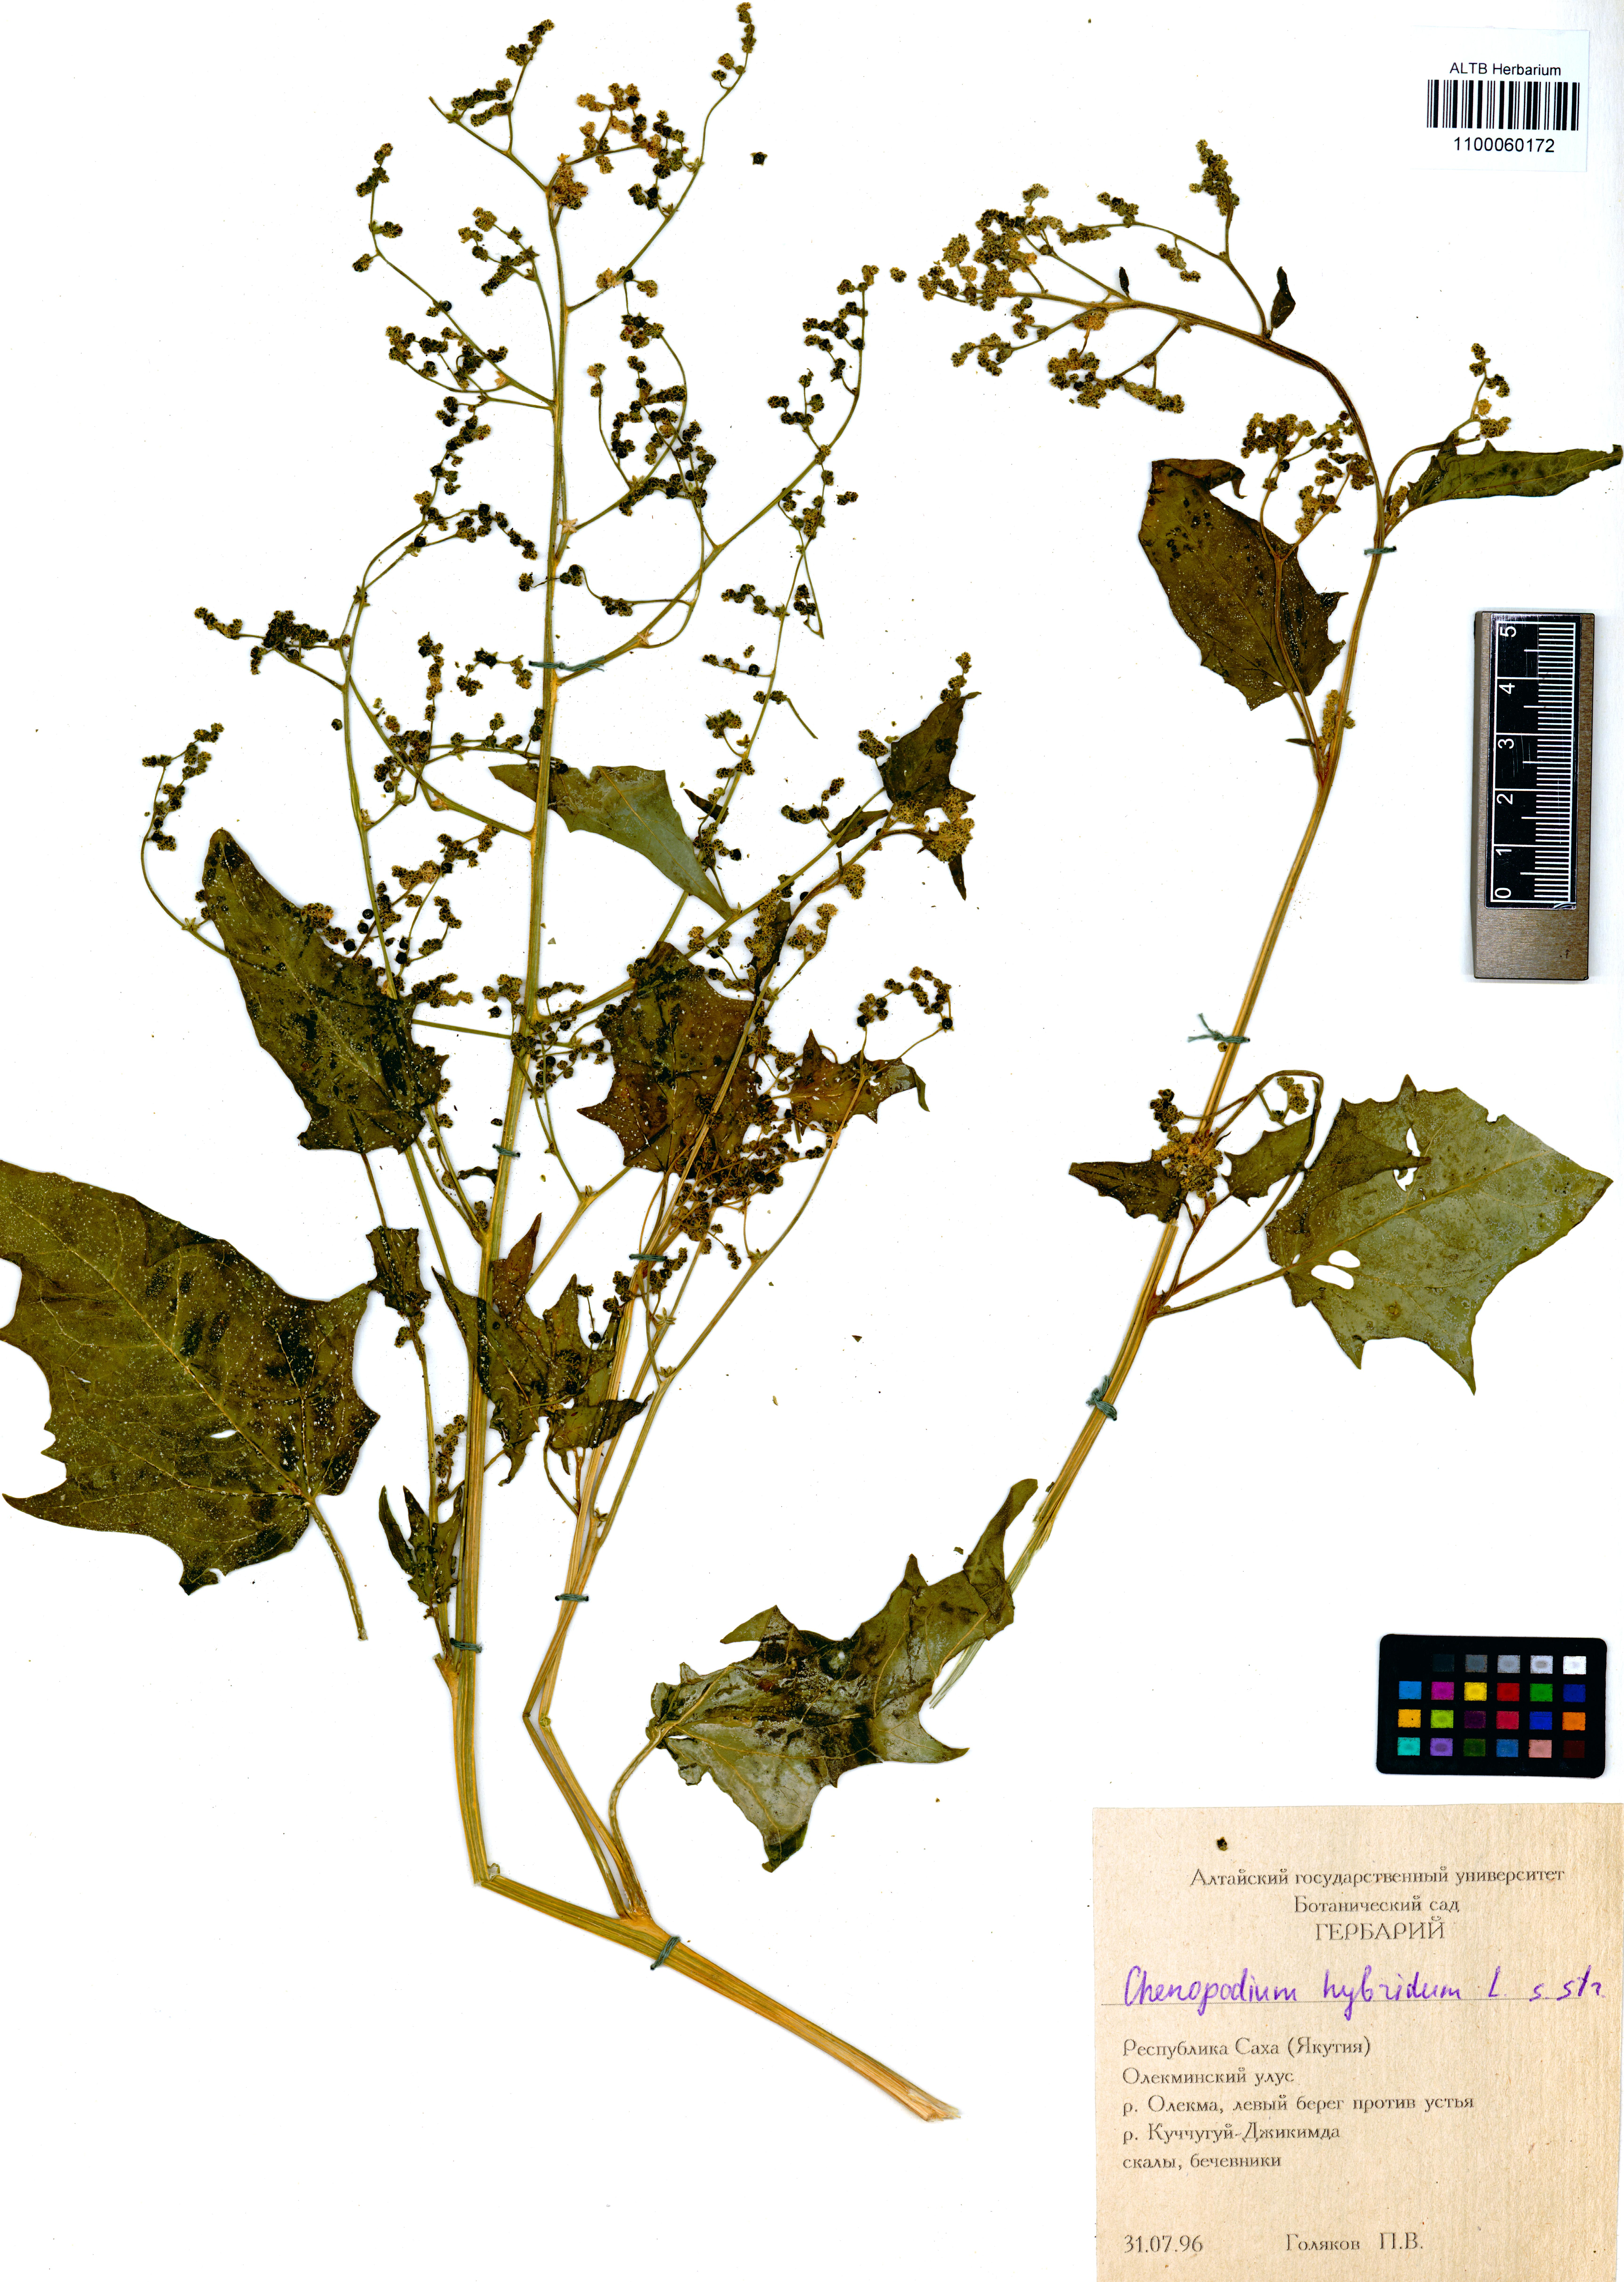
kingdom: Plantae
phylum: Tracheophyta
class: Magnoliopsida
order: Caryophyllales
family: Amaranthaceae
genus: Chenopodiastrum
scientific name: Chenopodiastrum hybridum
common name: Mapleleaf goosefoot
